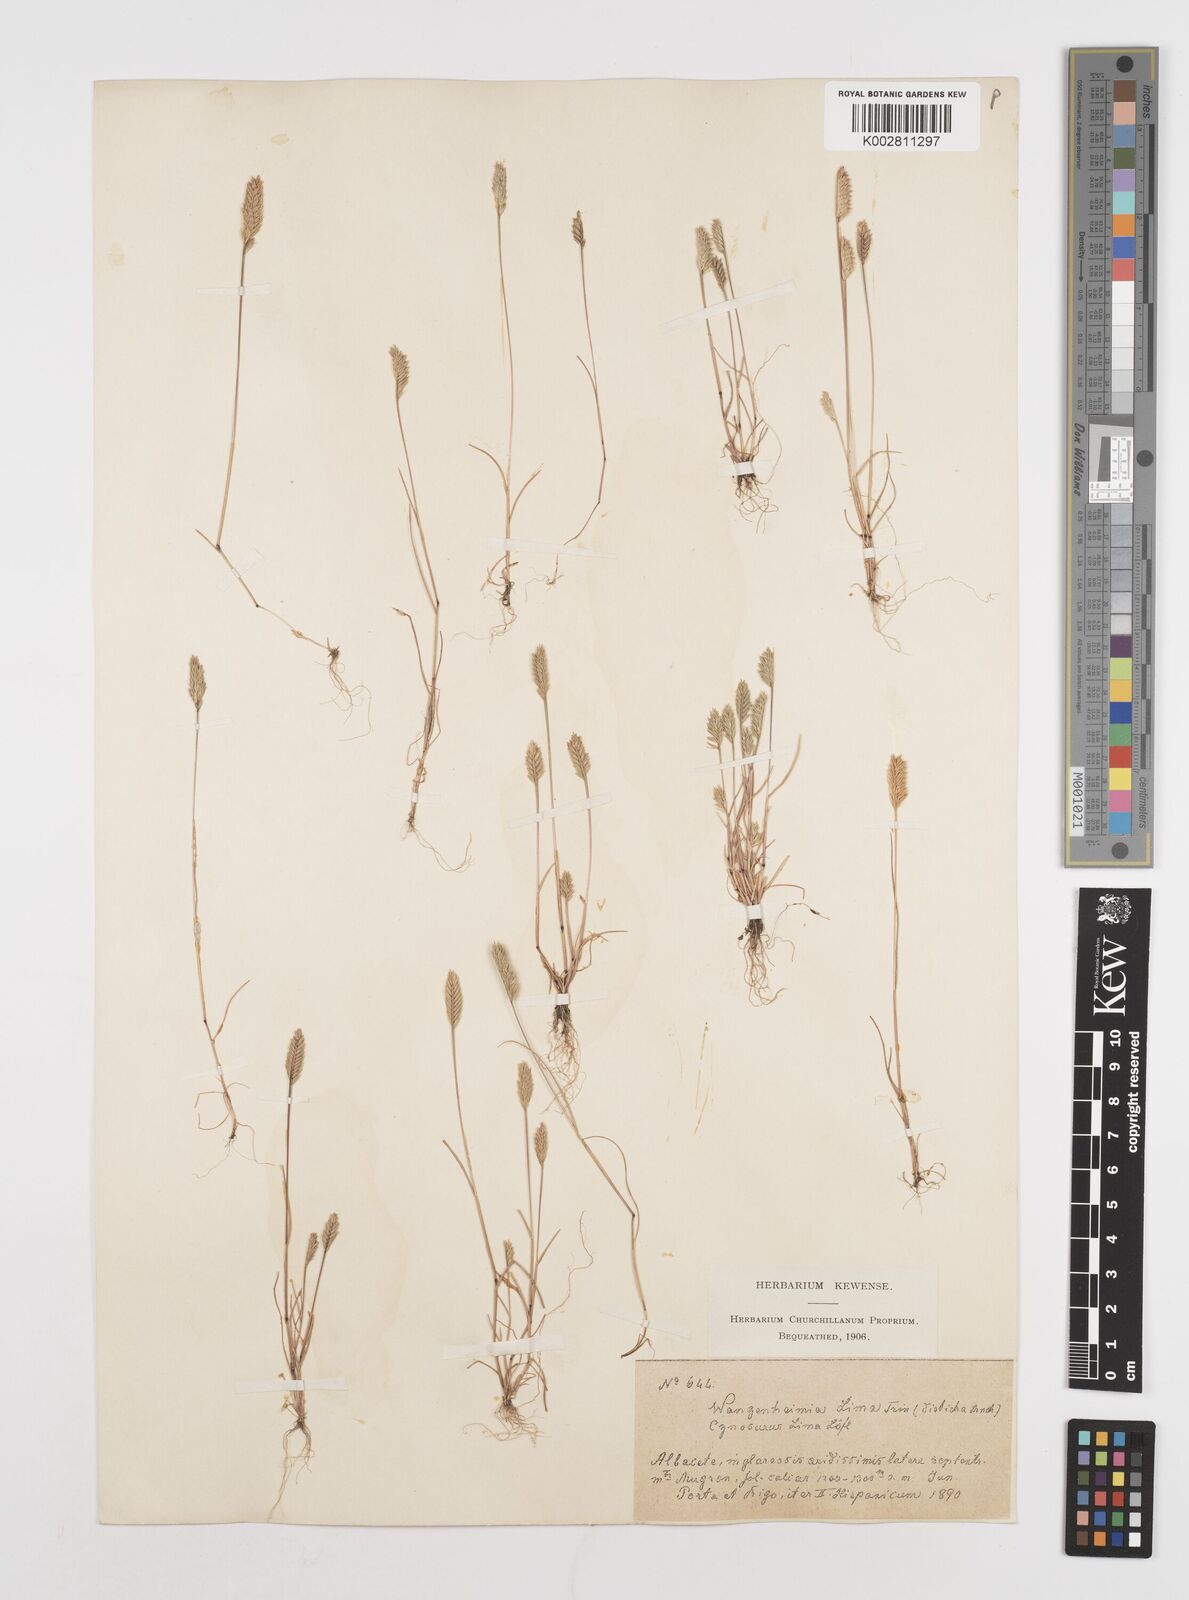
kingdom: Plantae
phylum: Tracheophyta
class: Liliopsida
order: Poales
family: Poaceae
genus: Wangenheimia
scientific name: Wangenheimia lima
